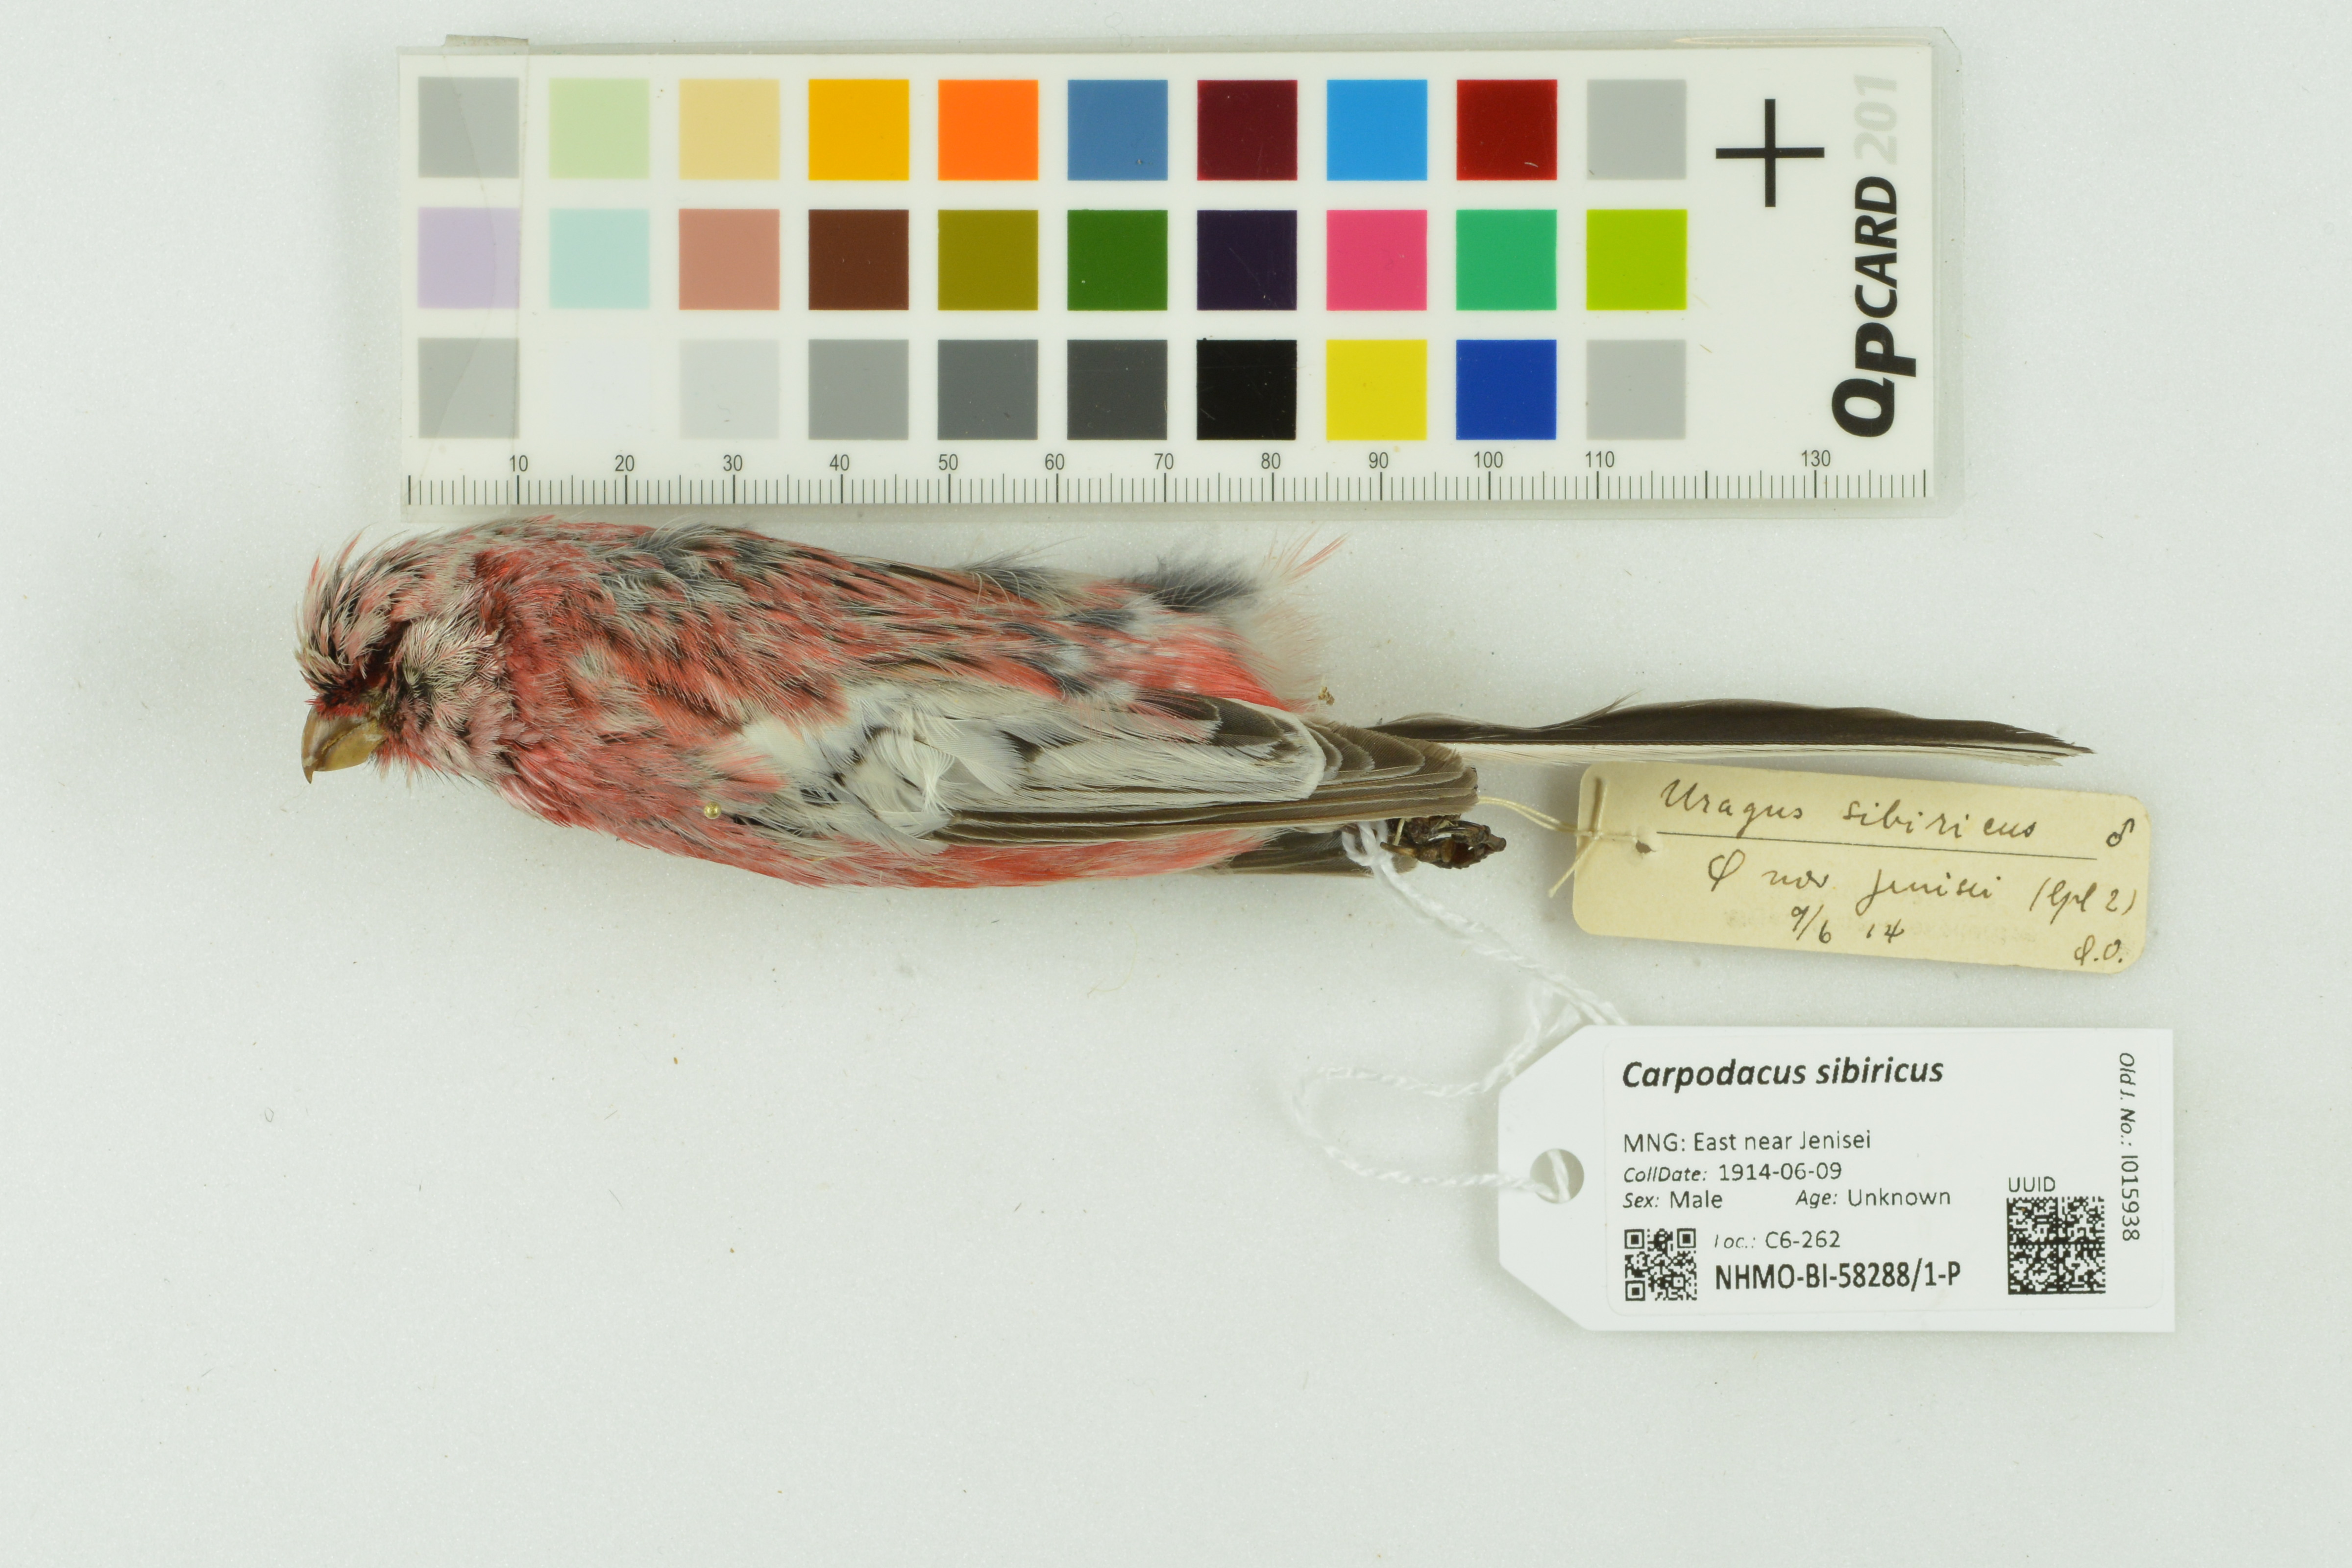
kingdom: Animalia
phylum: Chordata
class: Aves
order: Passeriformes
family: Fringillidae
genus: Carpodacus
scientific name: Carpodacus sibiricus
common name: Long-tailed rosefinch
